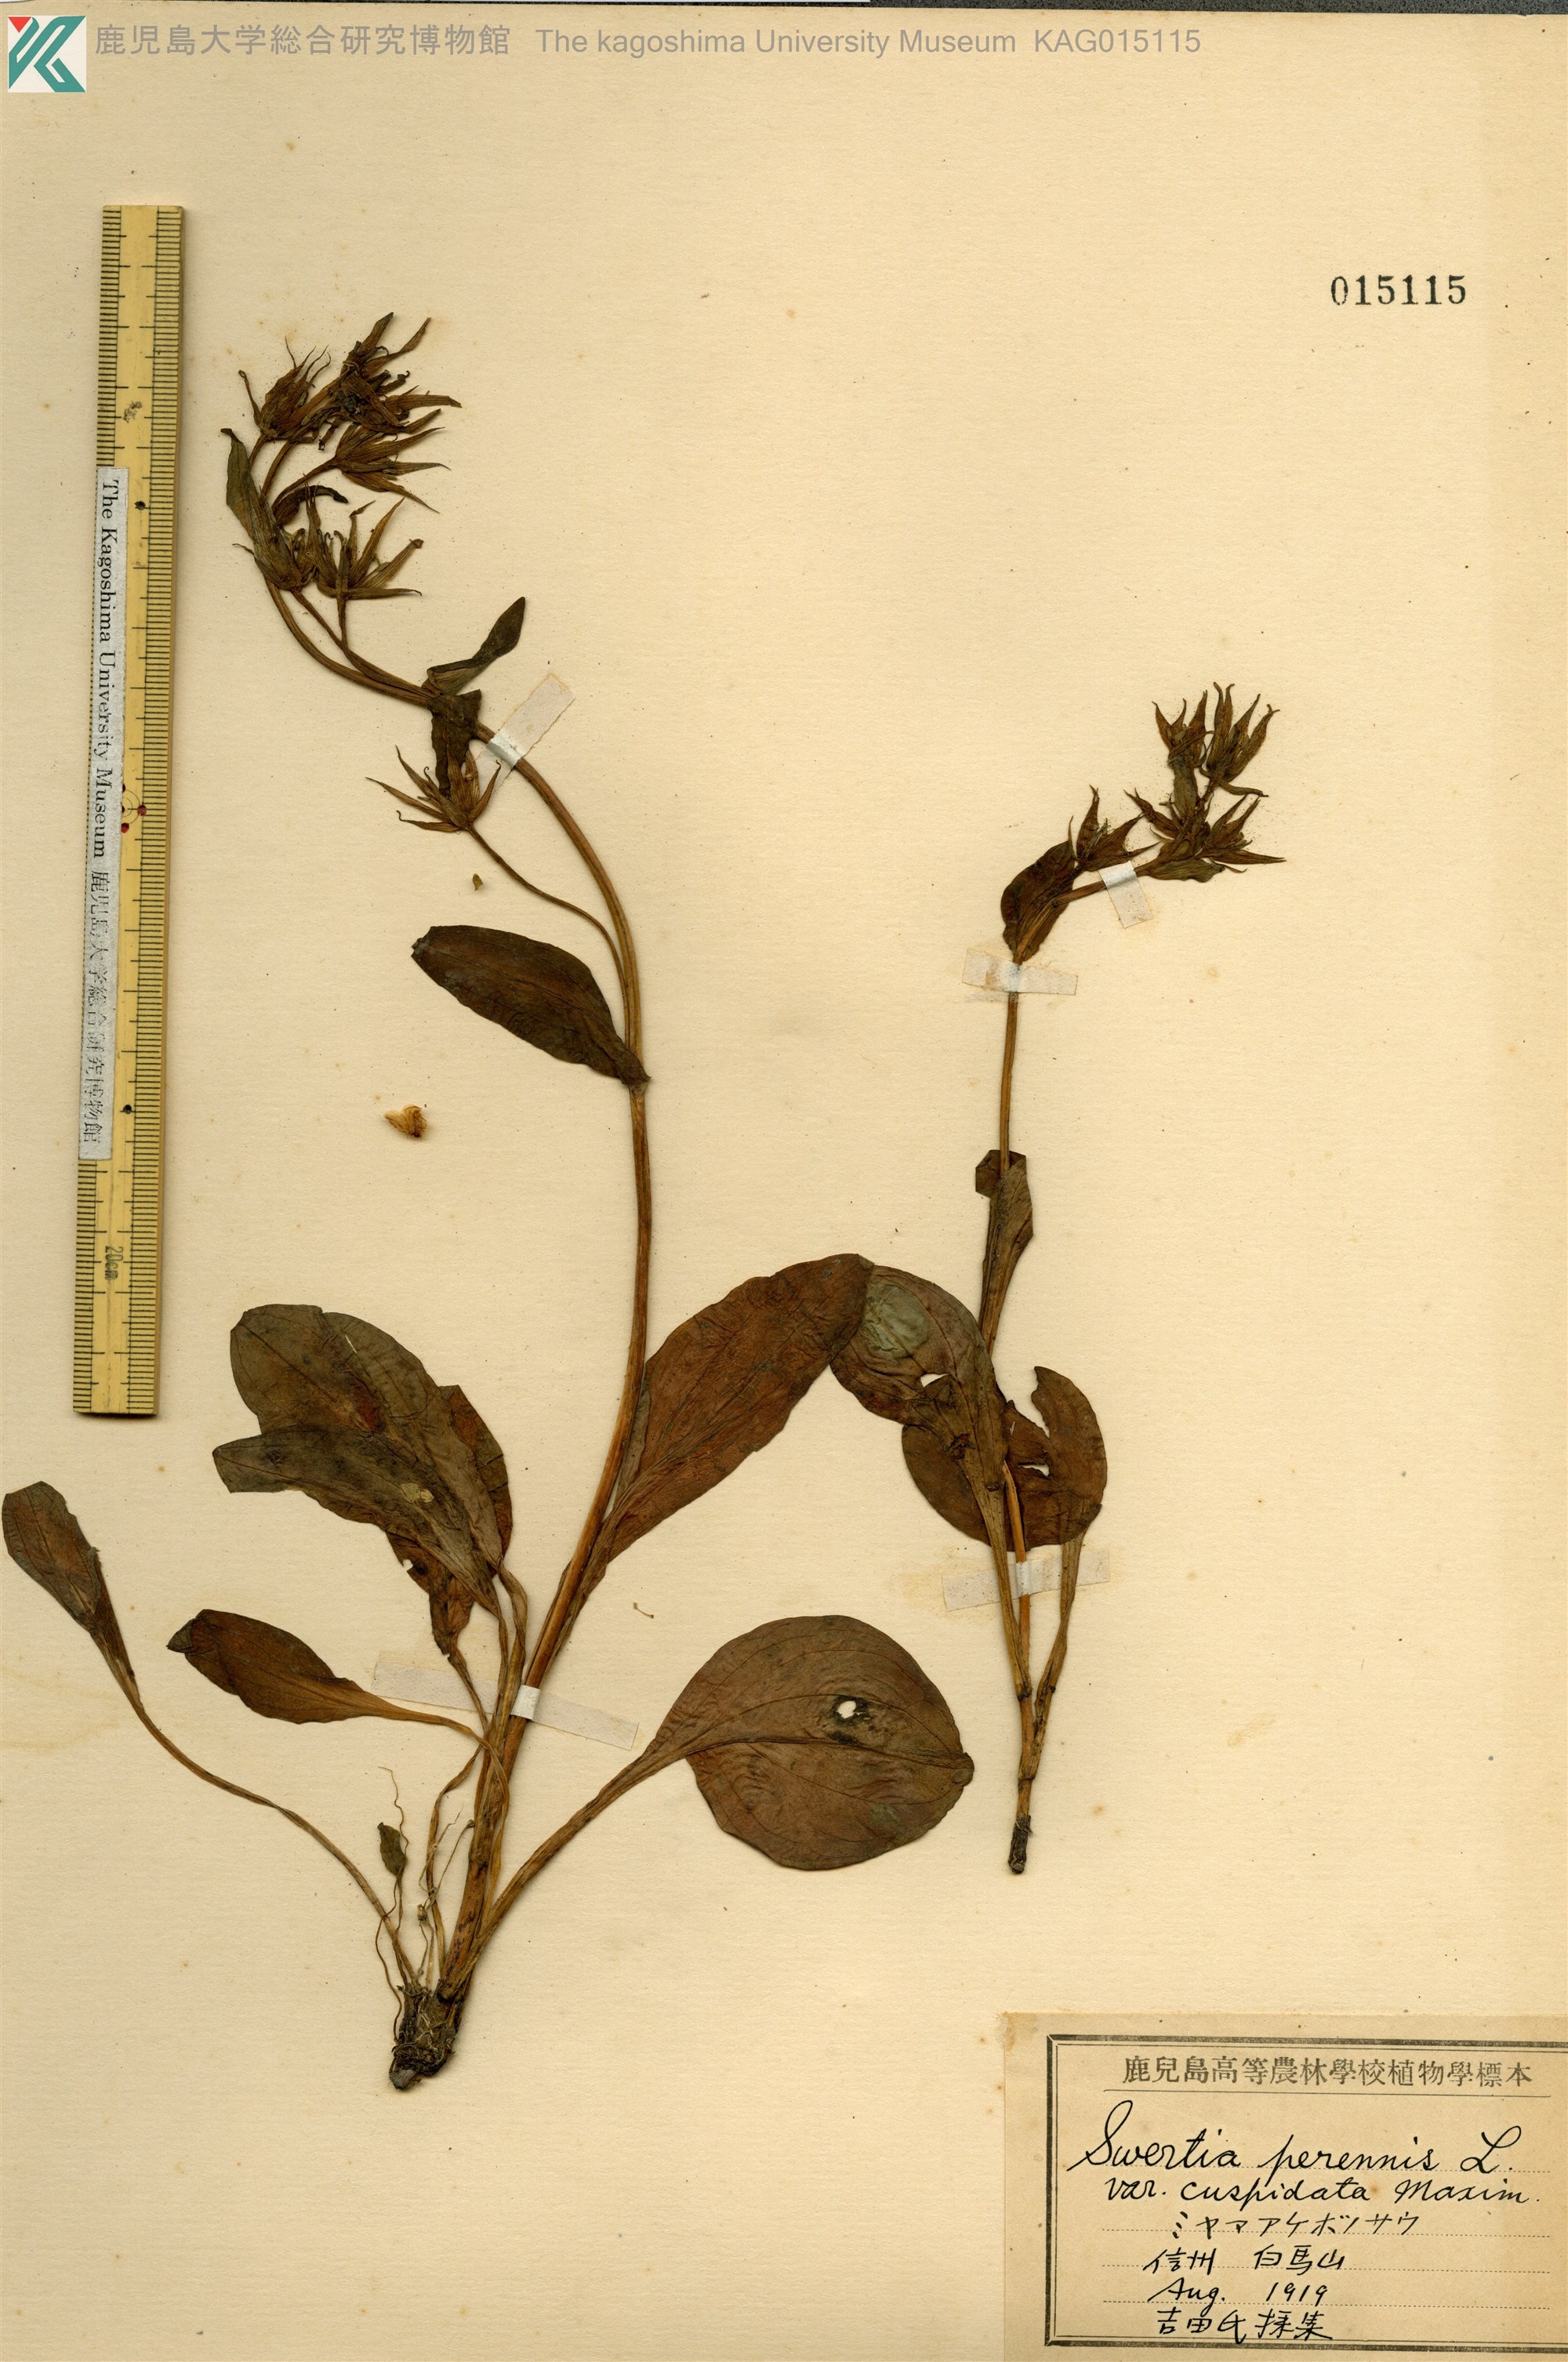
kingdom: Plantae
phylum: Tracheophyta
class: Magnoliopsida
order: Gentianales
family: Gentianaceae
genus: Swertia
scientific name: Swertia perennis
